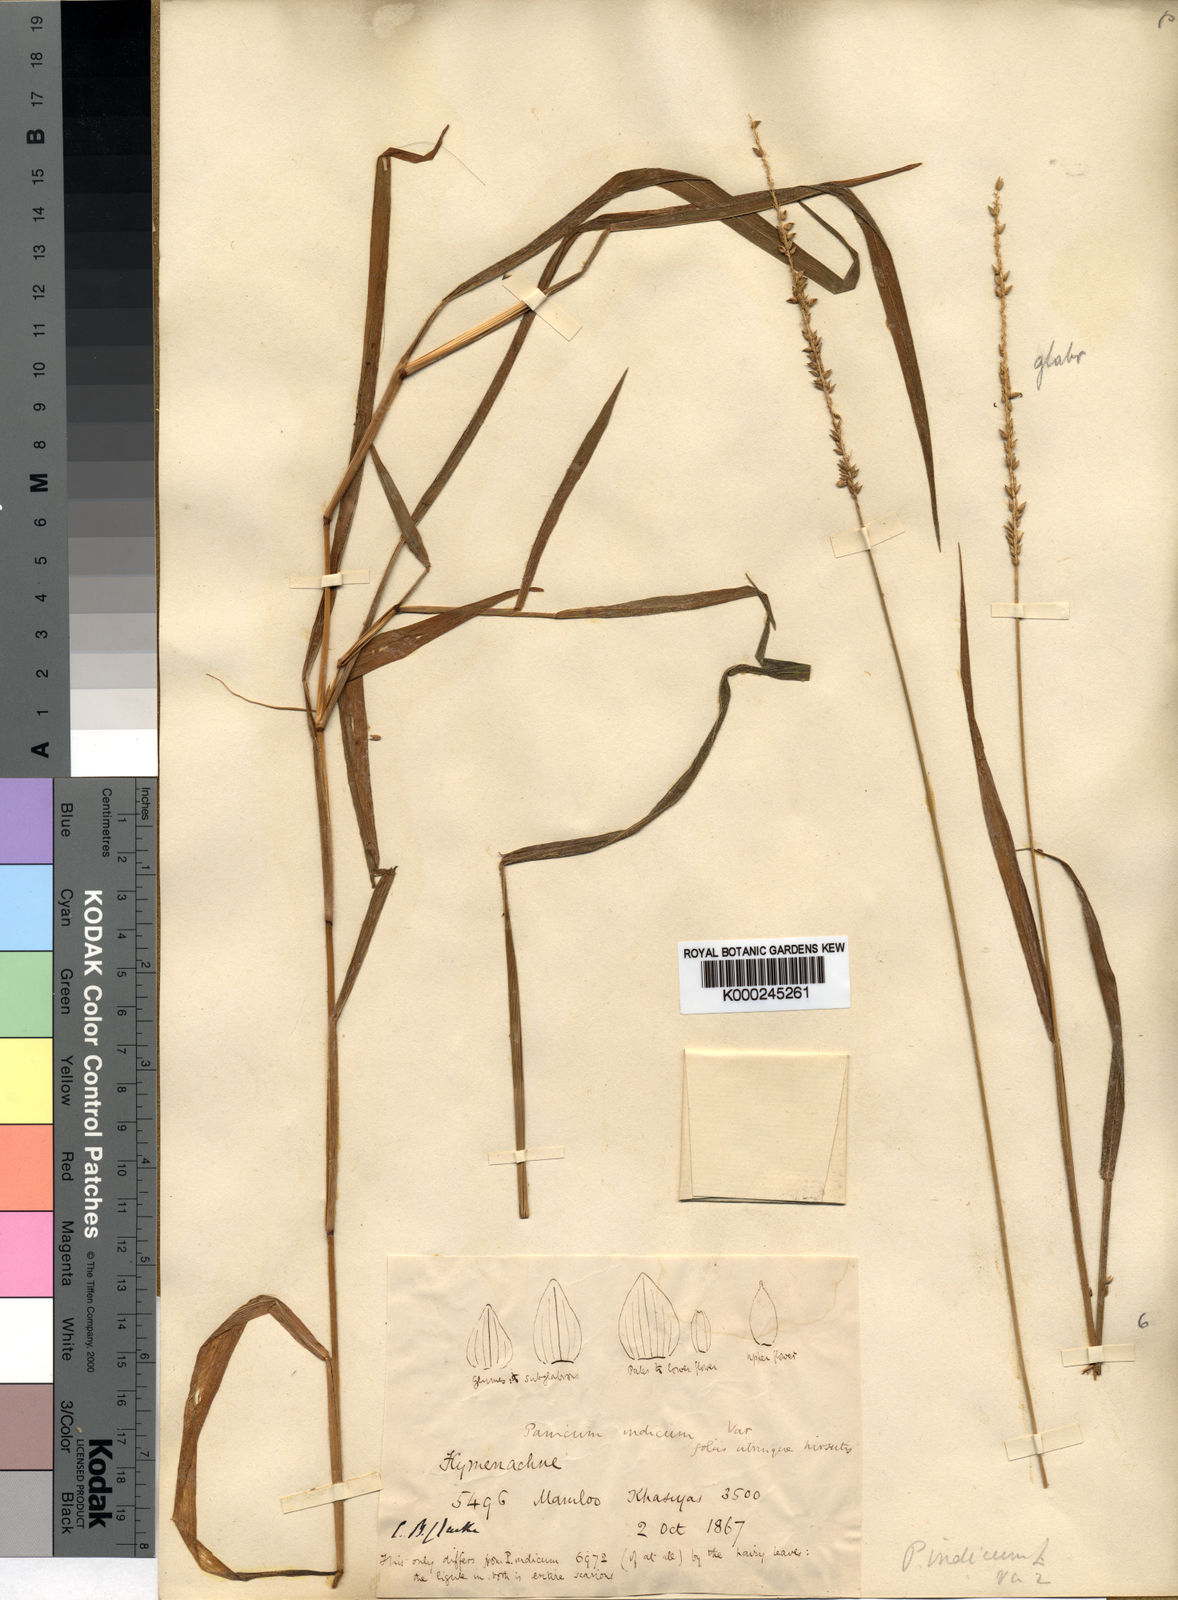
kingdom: Plantae
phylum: Tracheophyta
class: Liliopsida
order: Poales
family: Poaceae
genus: Sacciolepis
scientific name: Sacciolepis indica
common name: Glenwoodgrass
